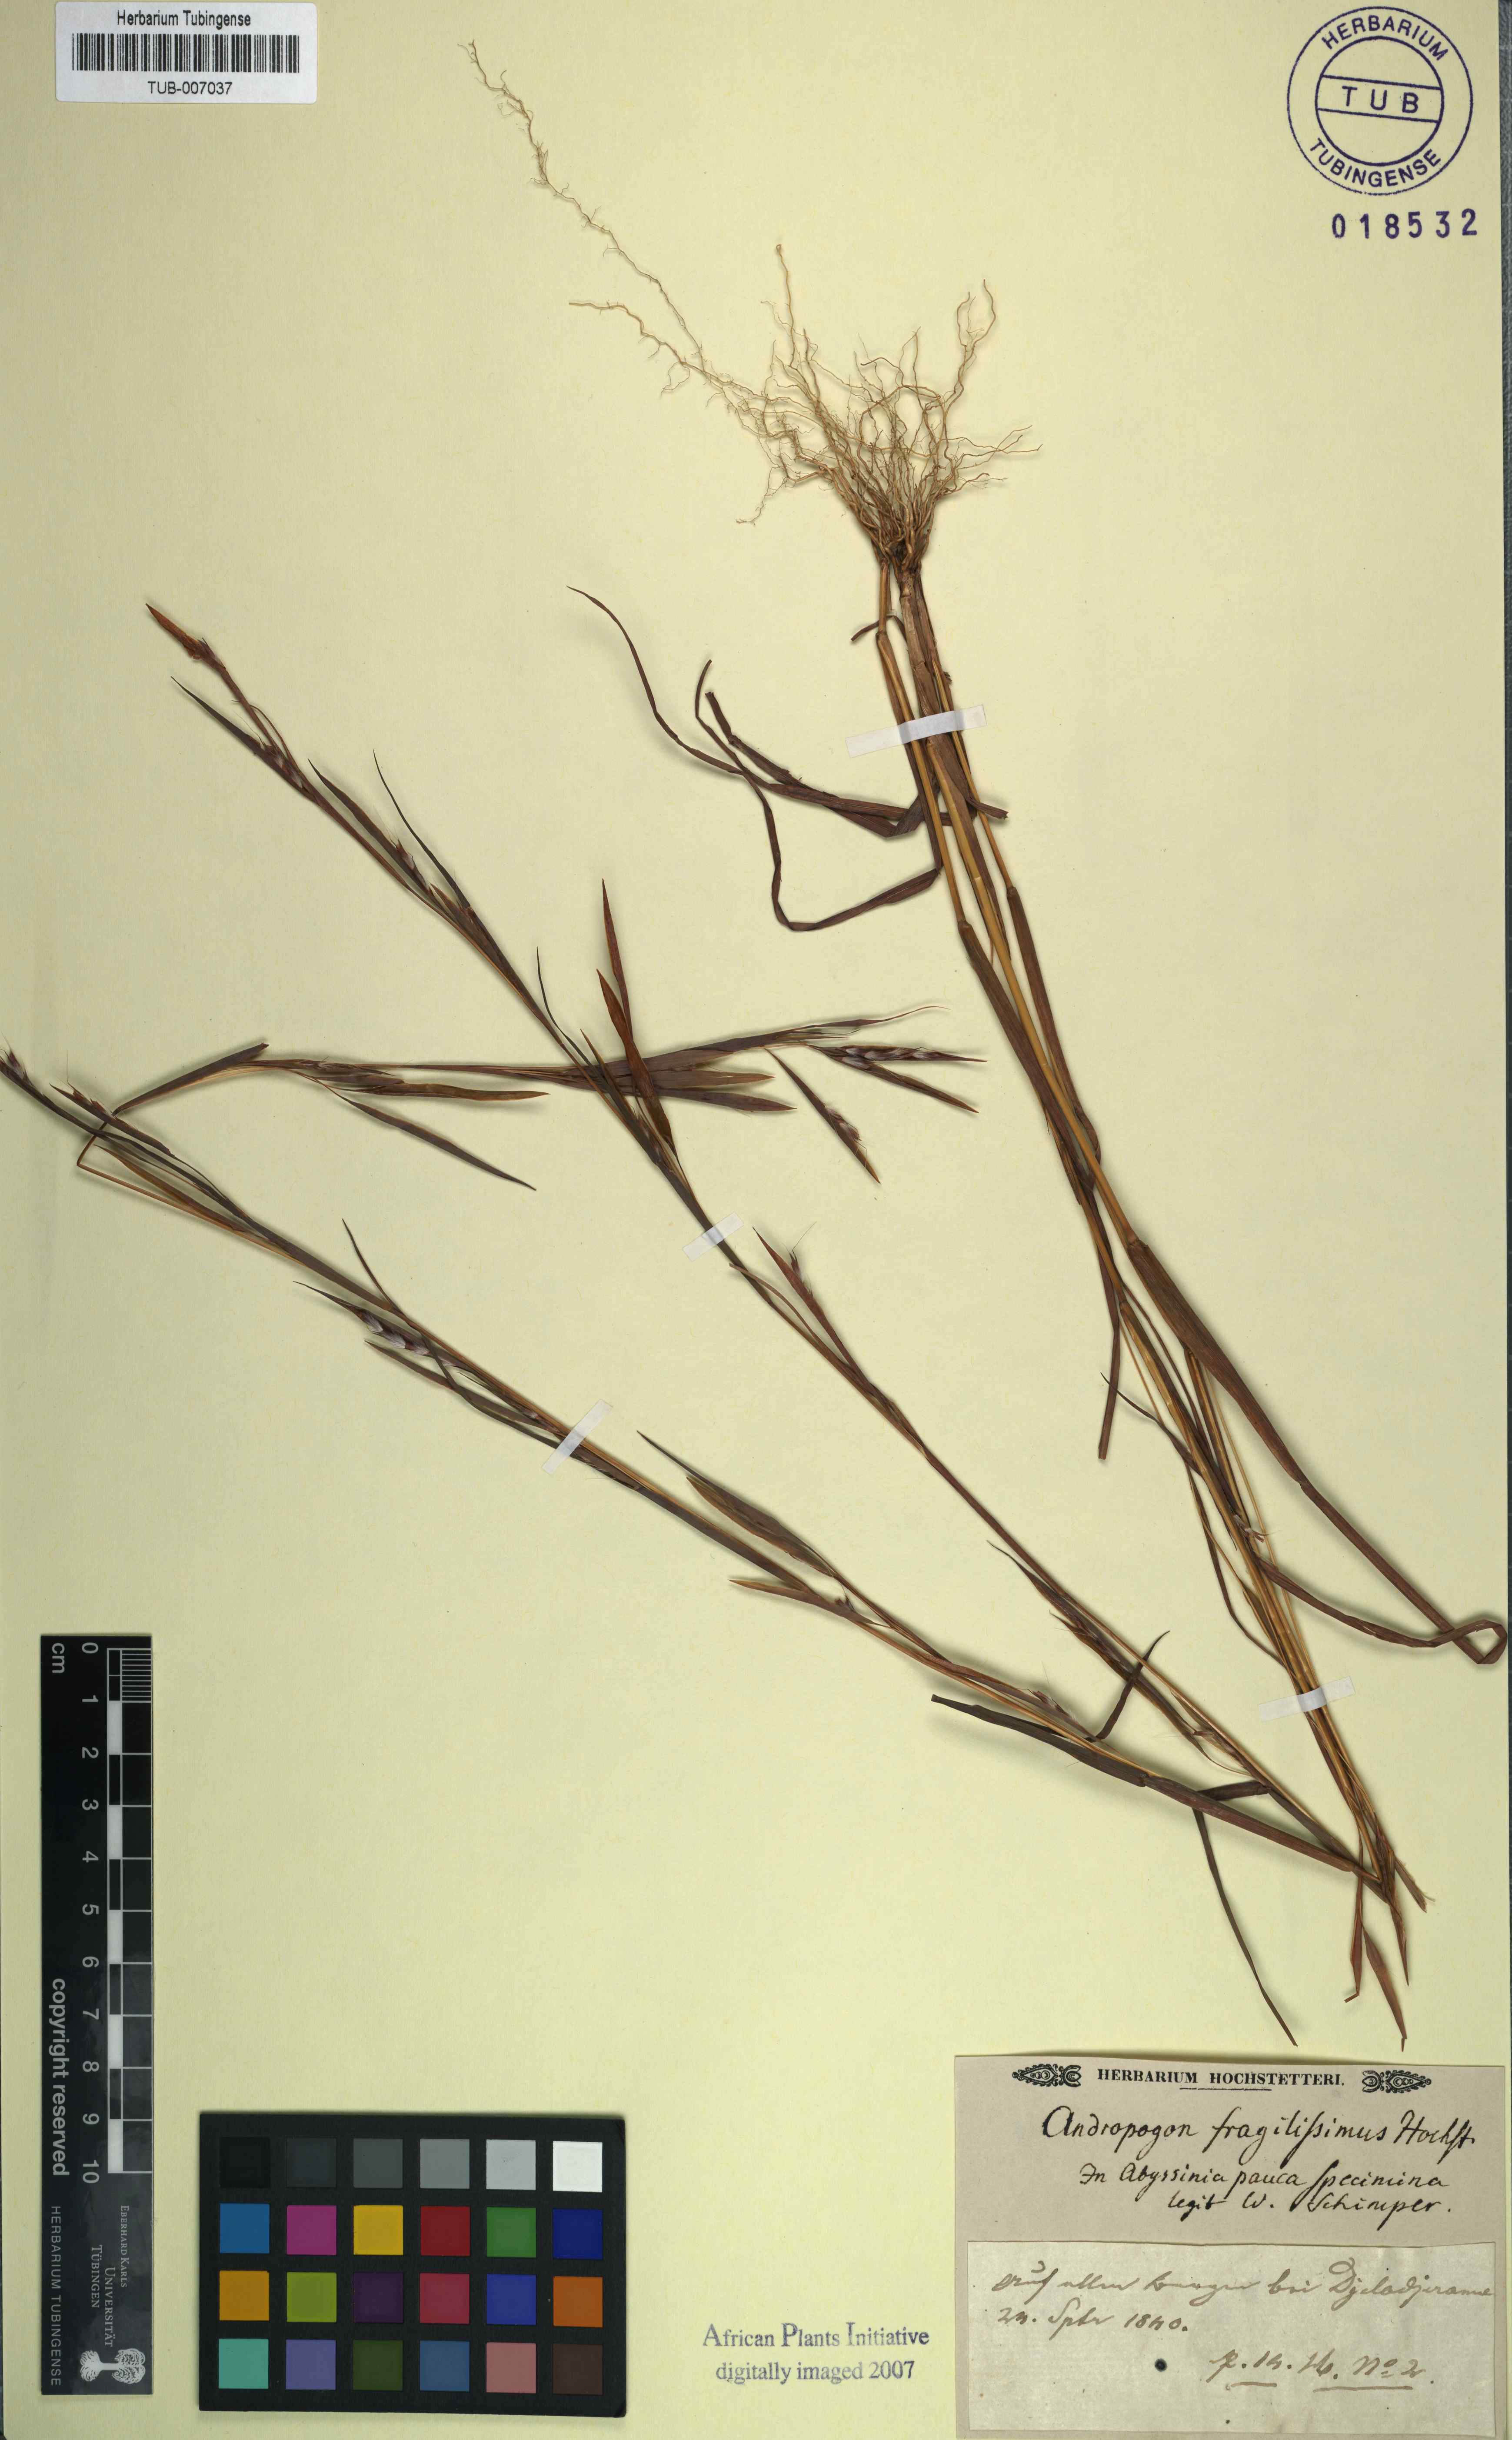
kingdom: Plantae
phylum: Tracheophyta
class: Liliopsida
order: Poales
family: Poaceae
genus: Schizachyrium
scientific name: Schizachyrium exile
